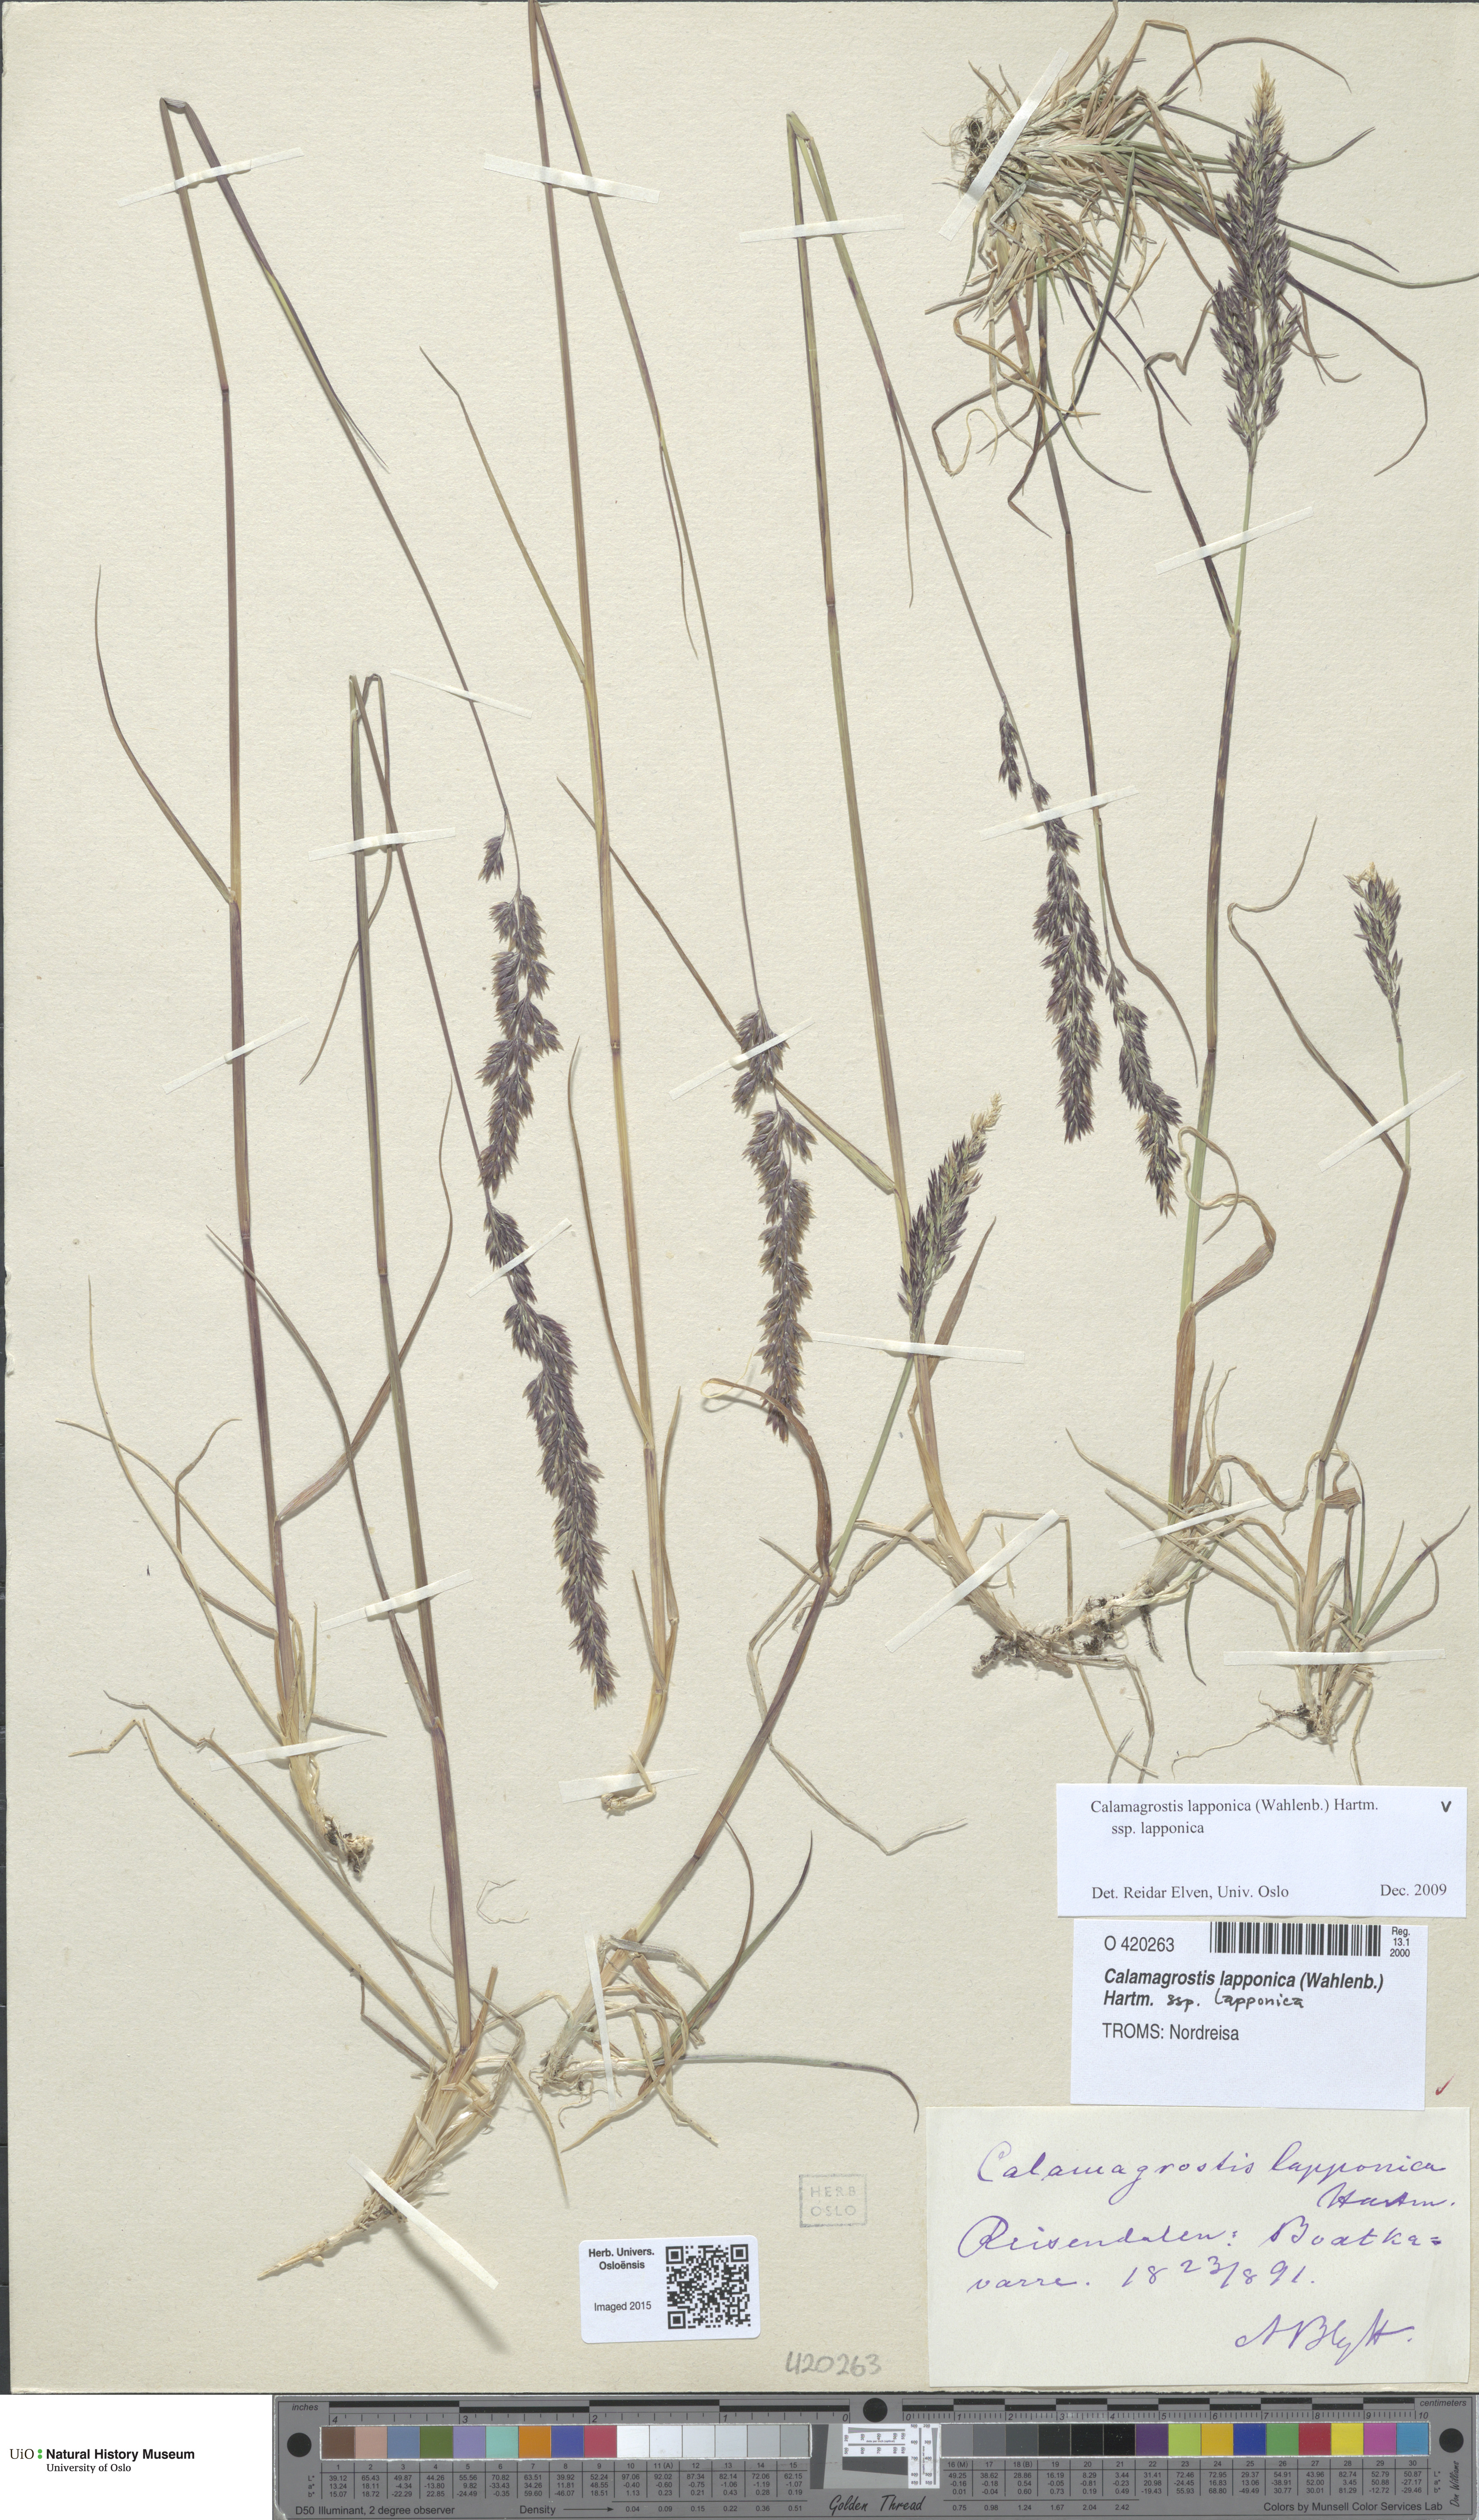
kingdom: Plantae
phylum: Tracheophyta
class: Liliopsida
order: Poales
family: Poaceae
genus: Calamagrostis
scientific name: Calamagrostis lapponica
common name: Lapland reedgrass
